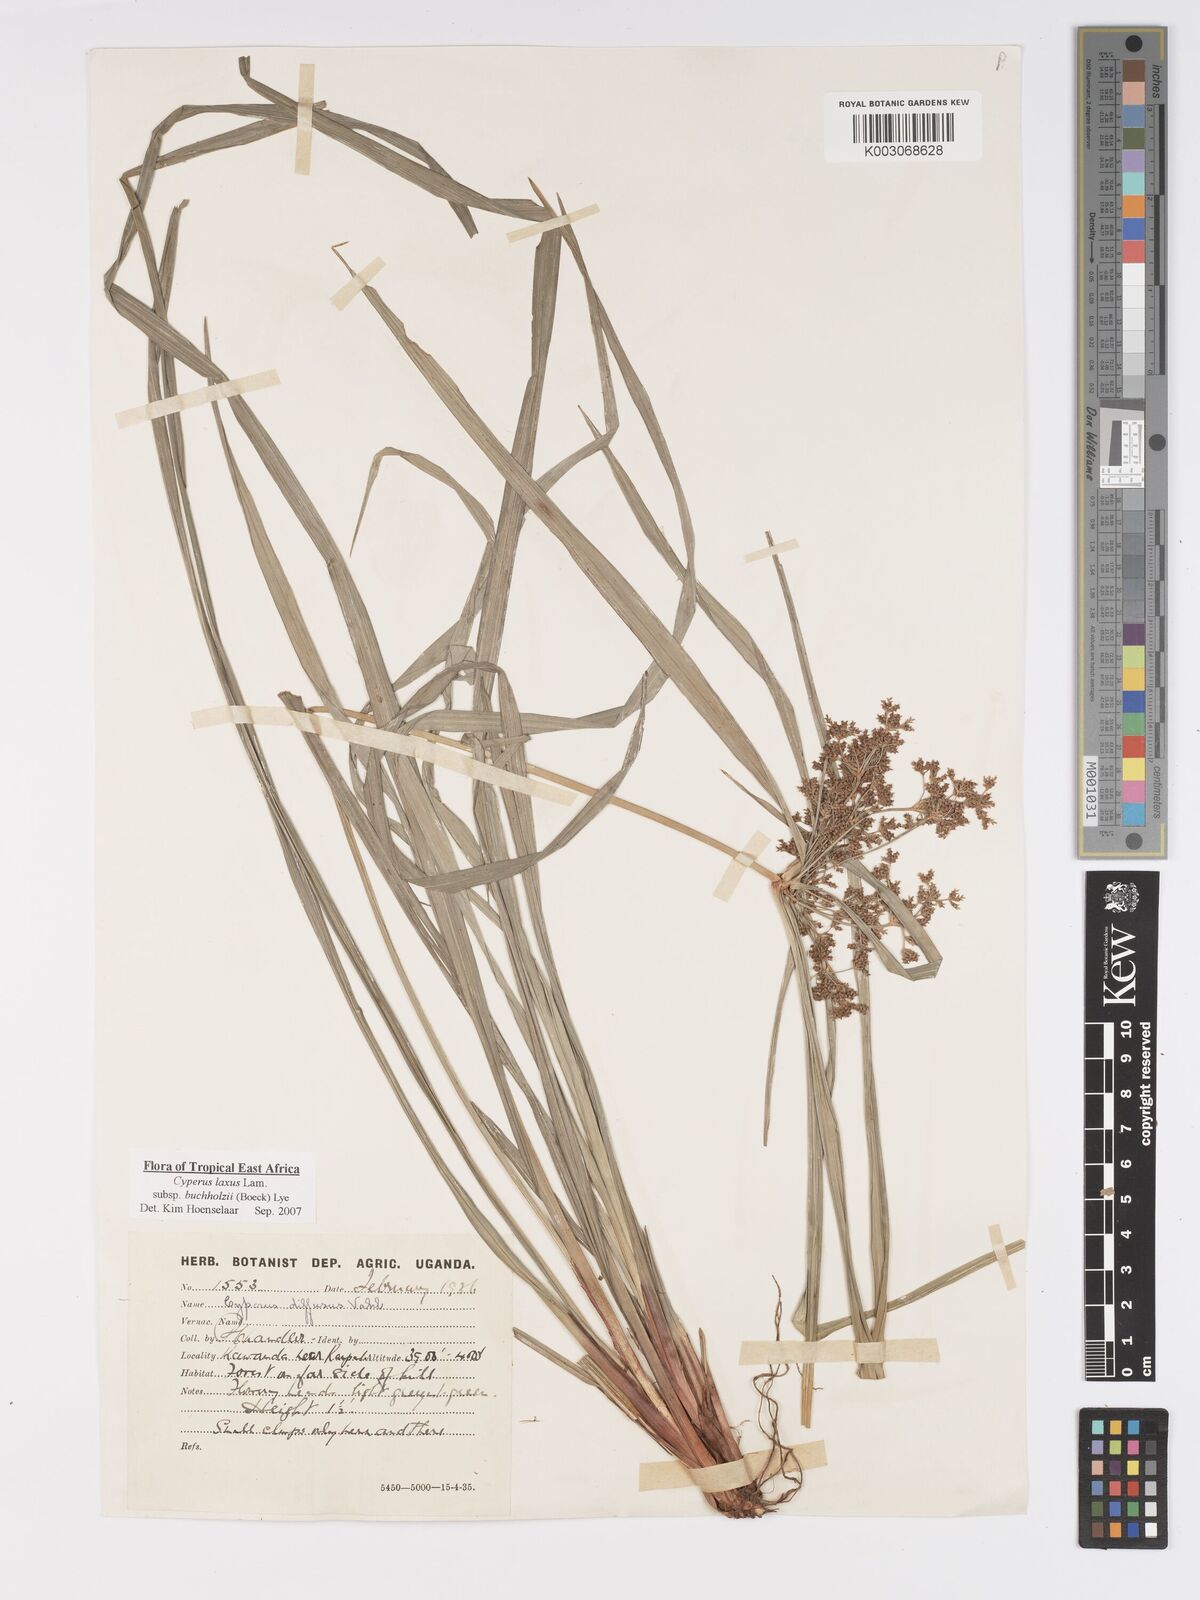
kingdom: Plantae
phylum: Tracheophyta
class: Liliopsida
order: Poales
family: Cyperaceae
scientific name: Cyperaceae
